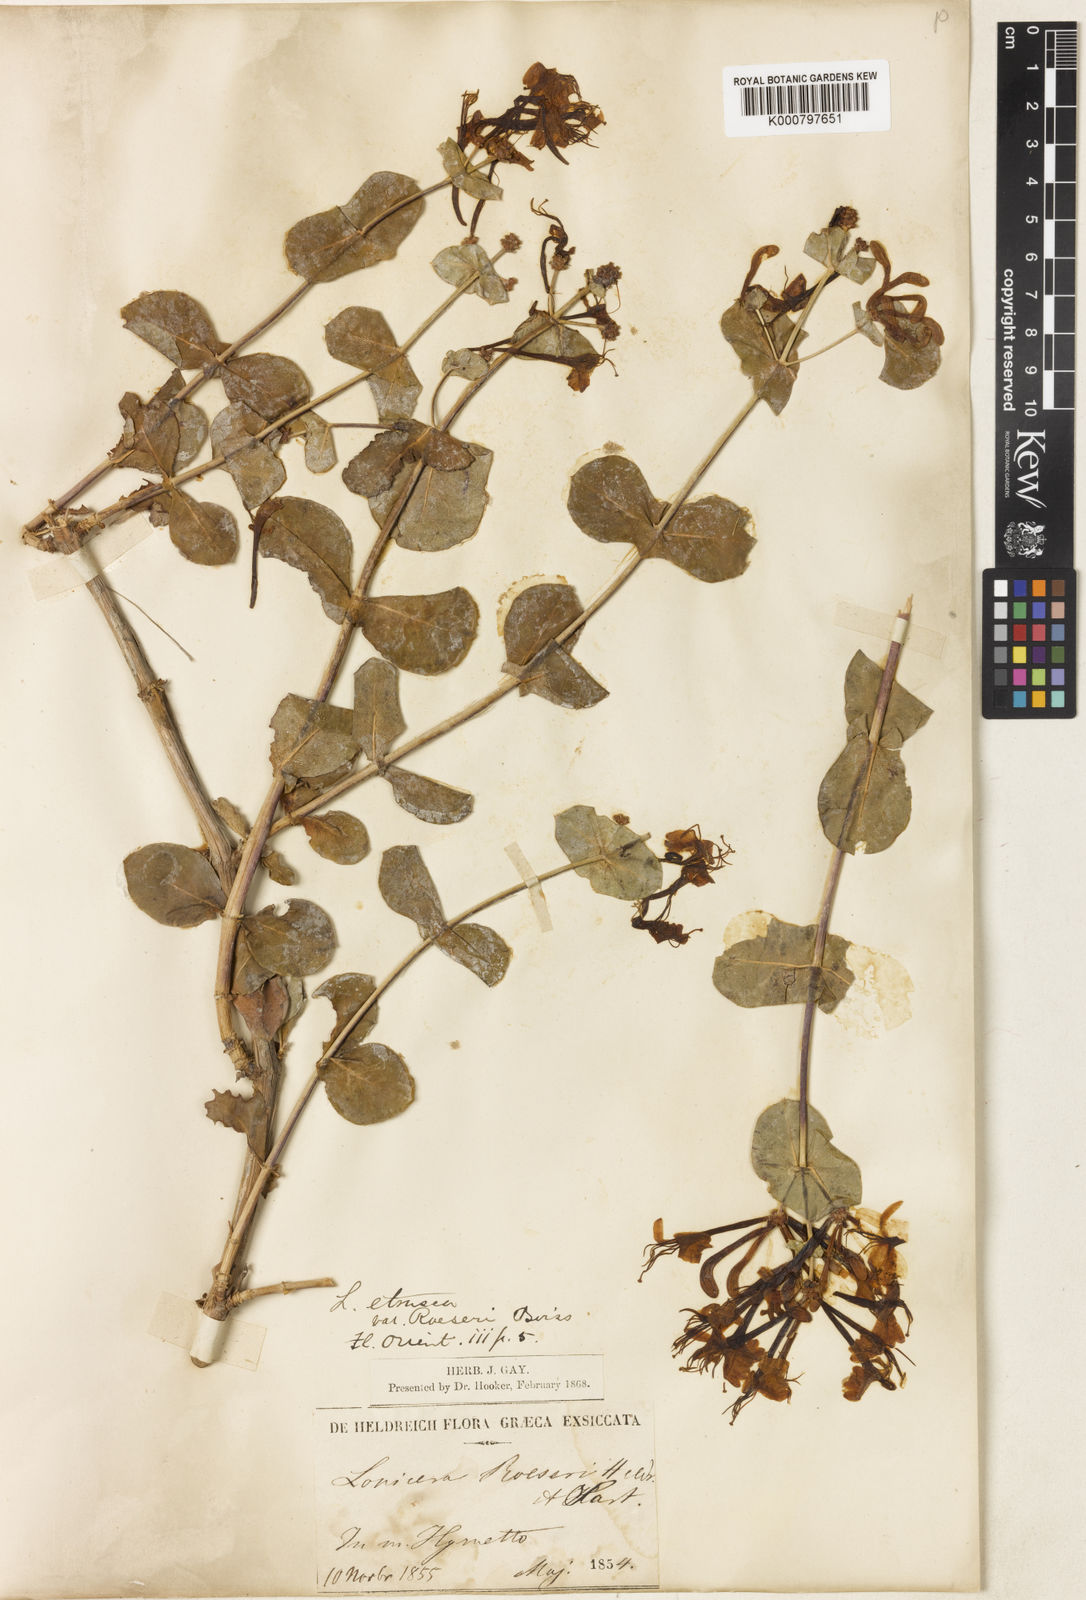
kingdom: Plantae
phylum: Tracheophyta
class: Magnoliopsida
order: Dipsacales
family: Caprifoliaceae
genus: Lonicera
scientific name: Lonicera
